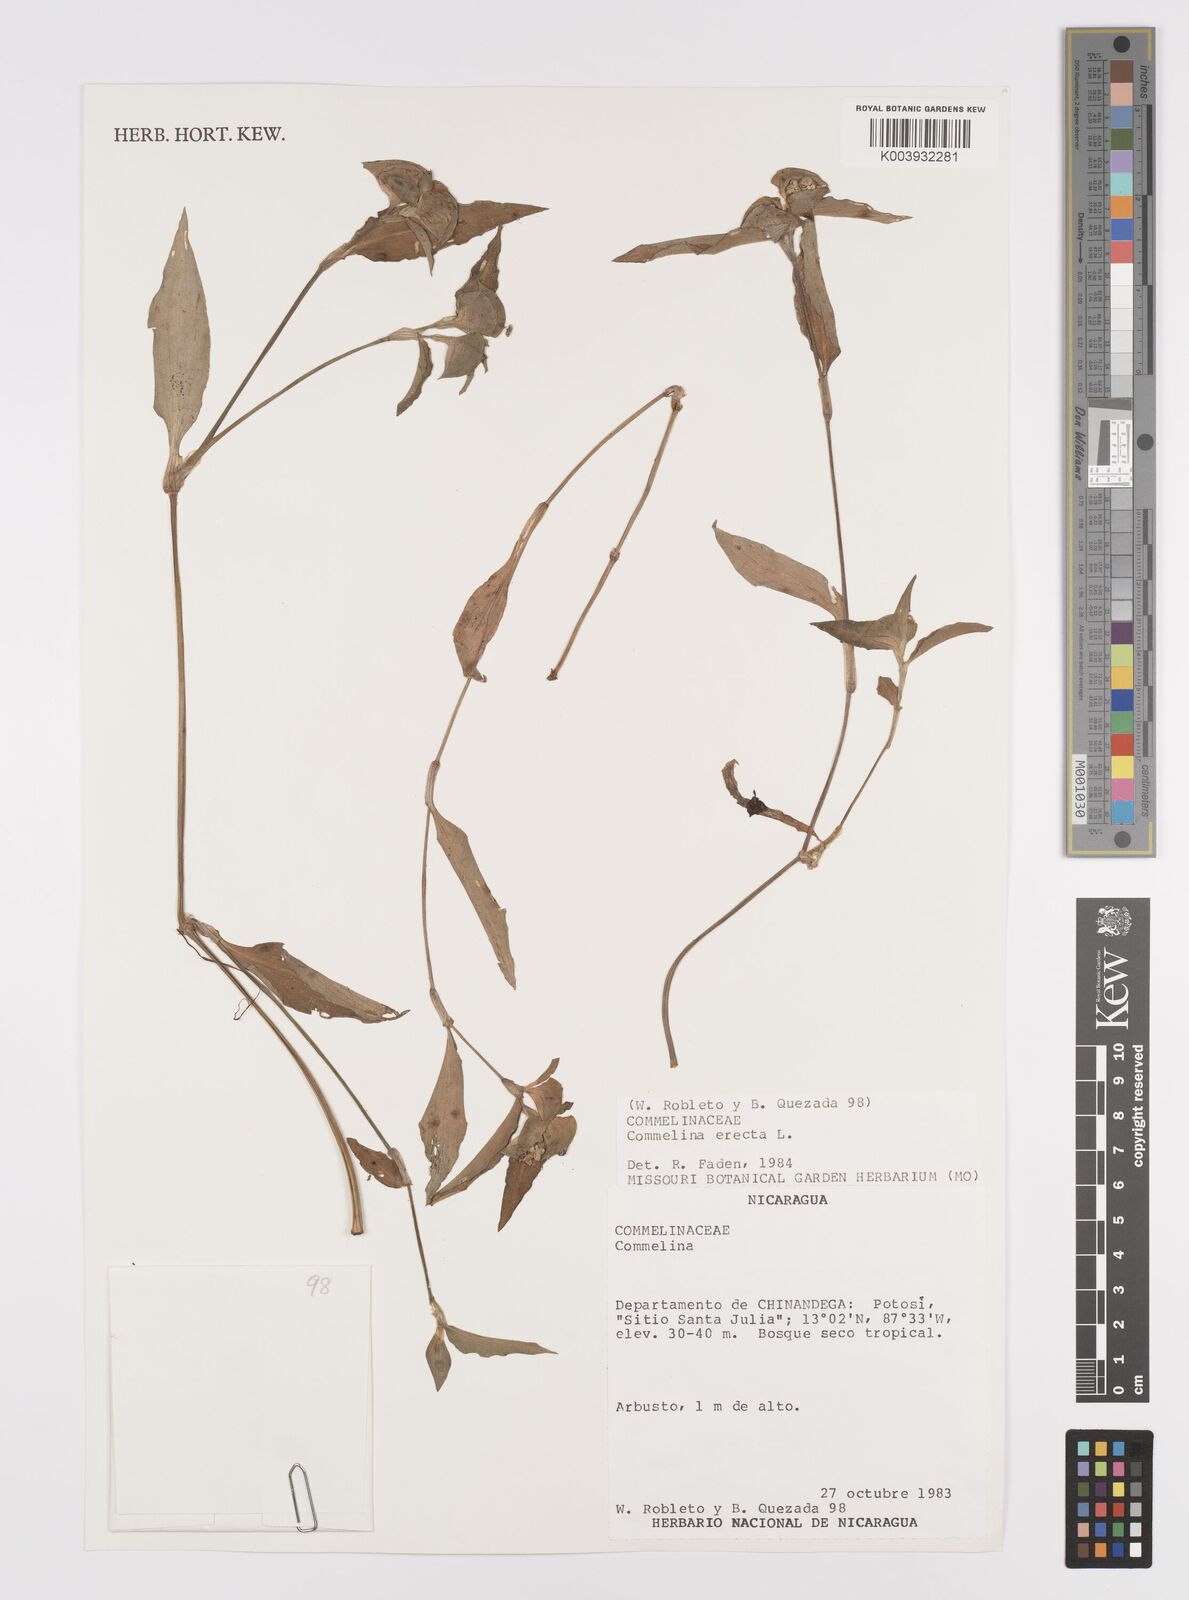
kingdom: Plantae
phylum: Tracheophyta
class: Liliopsida
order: Commelinales
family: Commelinaceae
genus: Commelina
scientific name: Commelina erecta
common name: Blousel blommetjie
